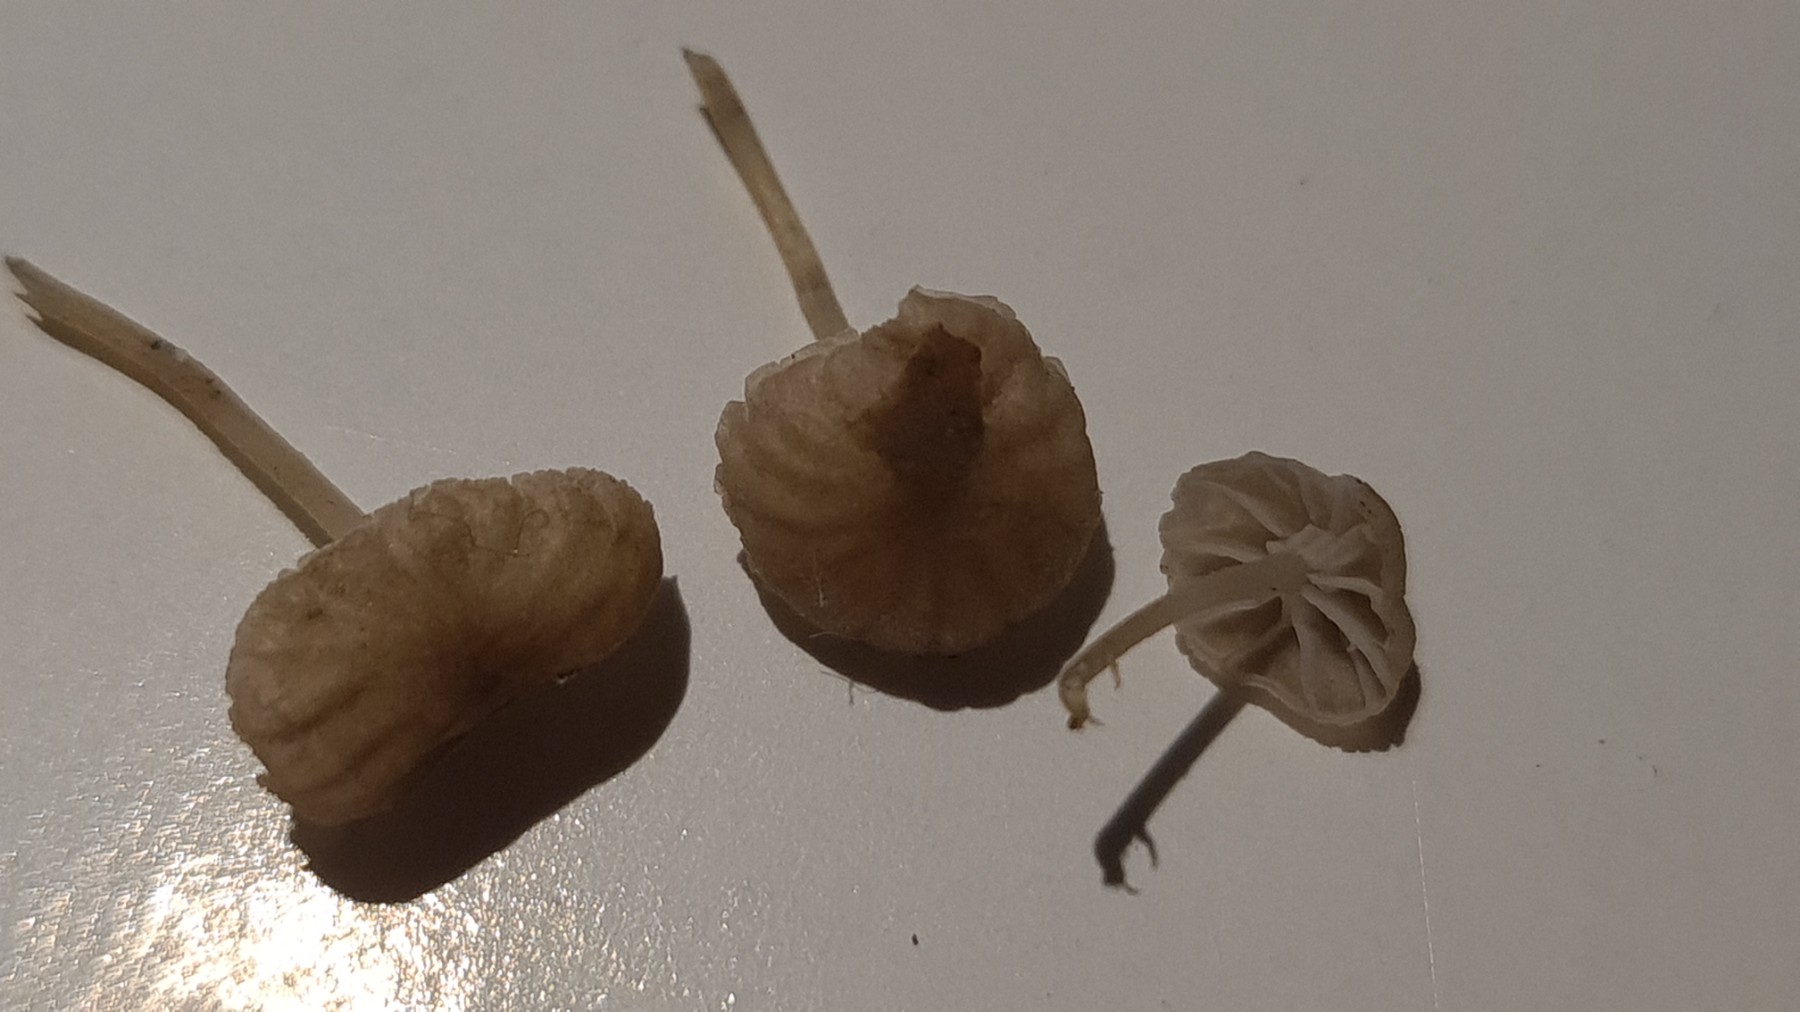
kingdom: Fungi
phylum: Basidiomycota
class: Agaricomycetes
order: Agaricales
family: Porotheleaceae
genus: Phloeomana
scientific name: Phloeomana speirea
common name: kvist-huesvamp
